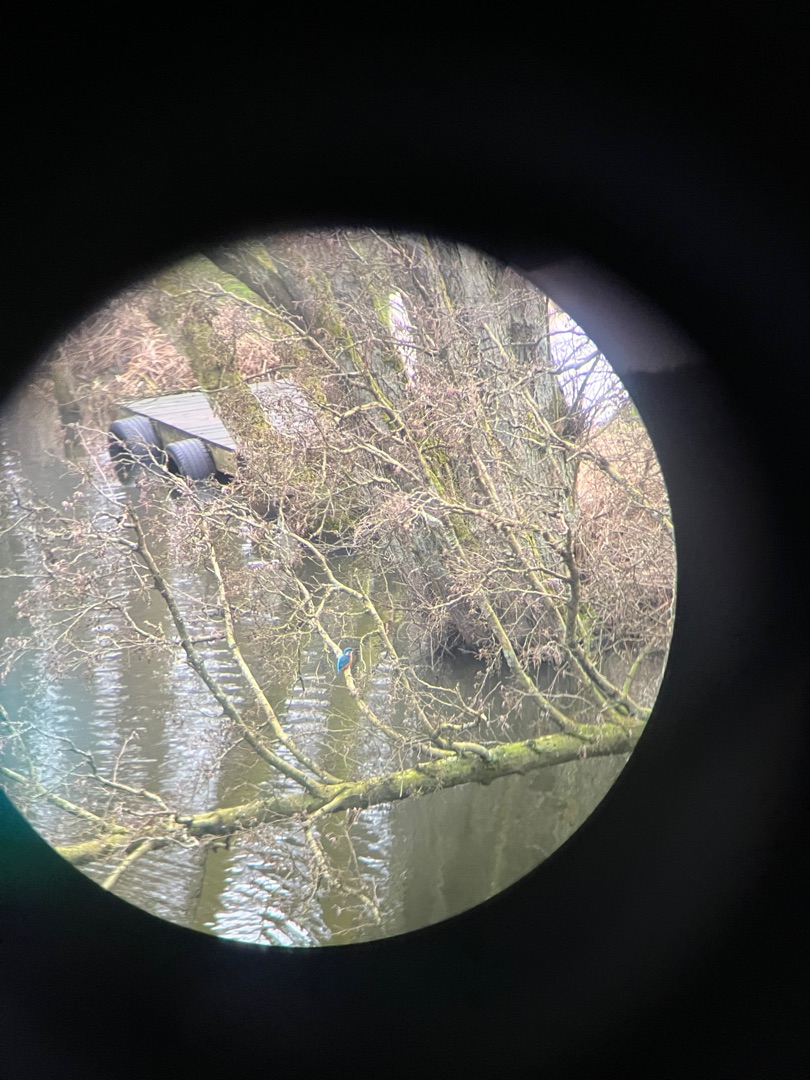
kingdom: Animalia
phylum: Chordata
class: Aves
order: Coraciiformes
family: Alcedinidae
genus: Alcedo
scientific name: Alcedo atthis
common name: Isfugl
